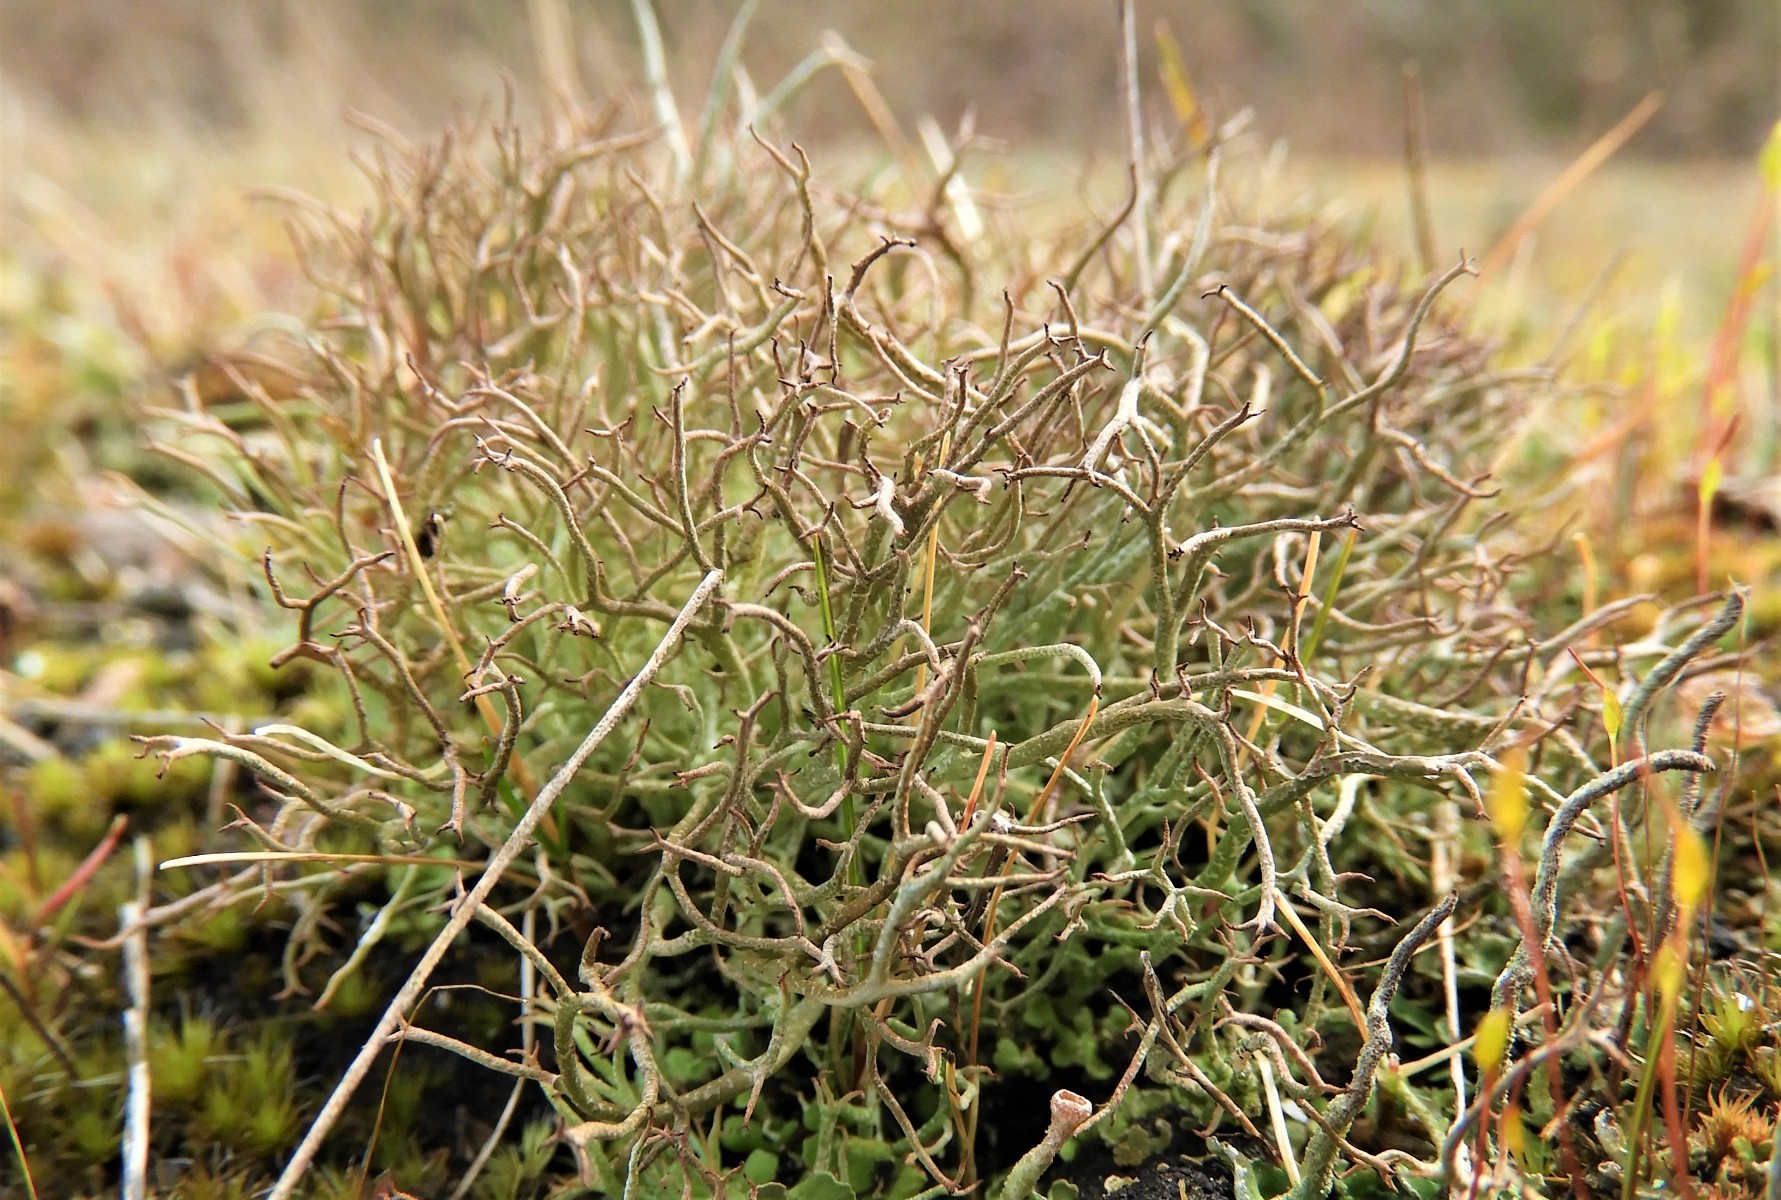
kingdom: Fungi
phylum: Ascomycota
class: Lecanoromycetes
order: Lecanorales
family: Cladoniaceae
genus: Cladonia
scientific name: Cladonia furcata
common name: kløftet bægerlav
